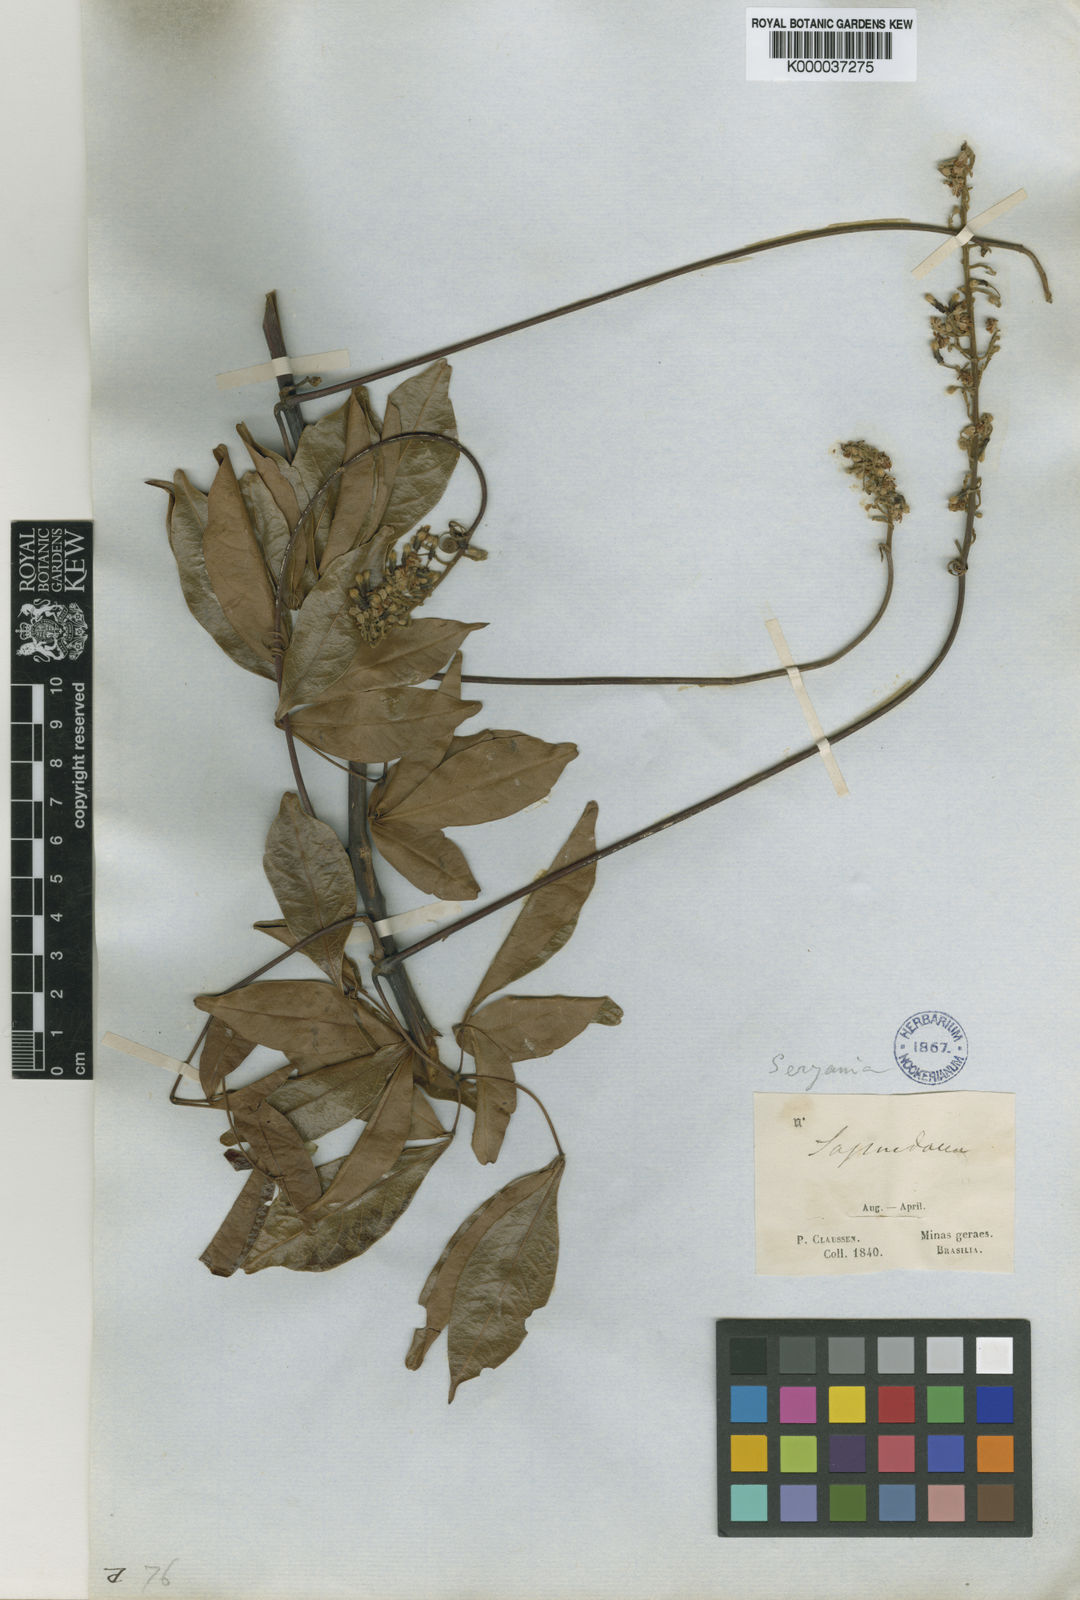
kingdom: Plantae
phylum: Tracheophyta
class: Magnoliopsida
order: Sapindales
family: Sapindaceae
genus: Serjania
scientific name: Serjania lethalis
